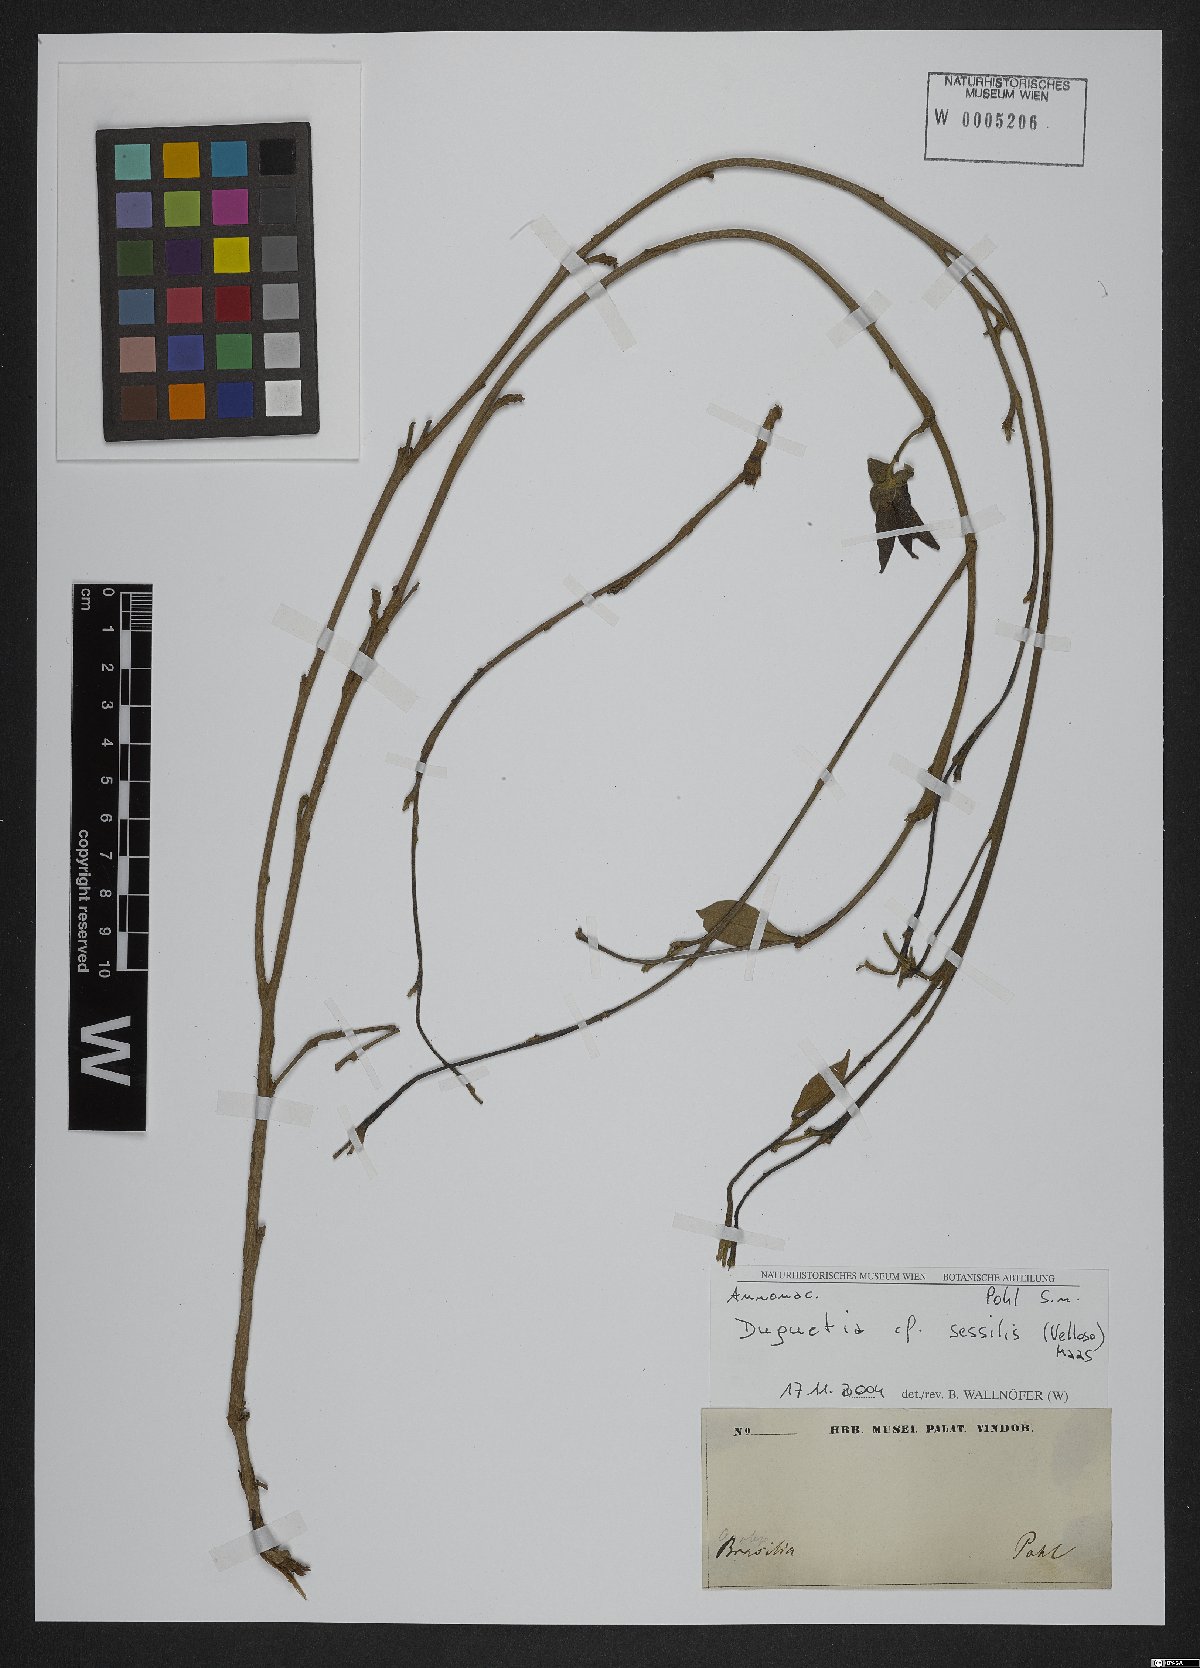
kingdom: Plantae
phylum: Tracheophyta
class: Magnoliopsida
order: Magnoliales
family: Annonaceae
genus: Duguetia
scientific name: Duguetia sessilis
